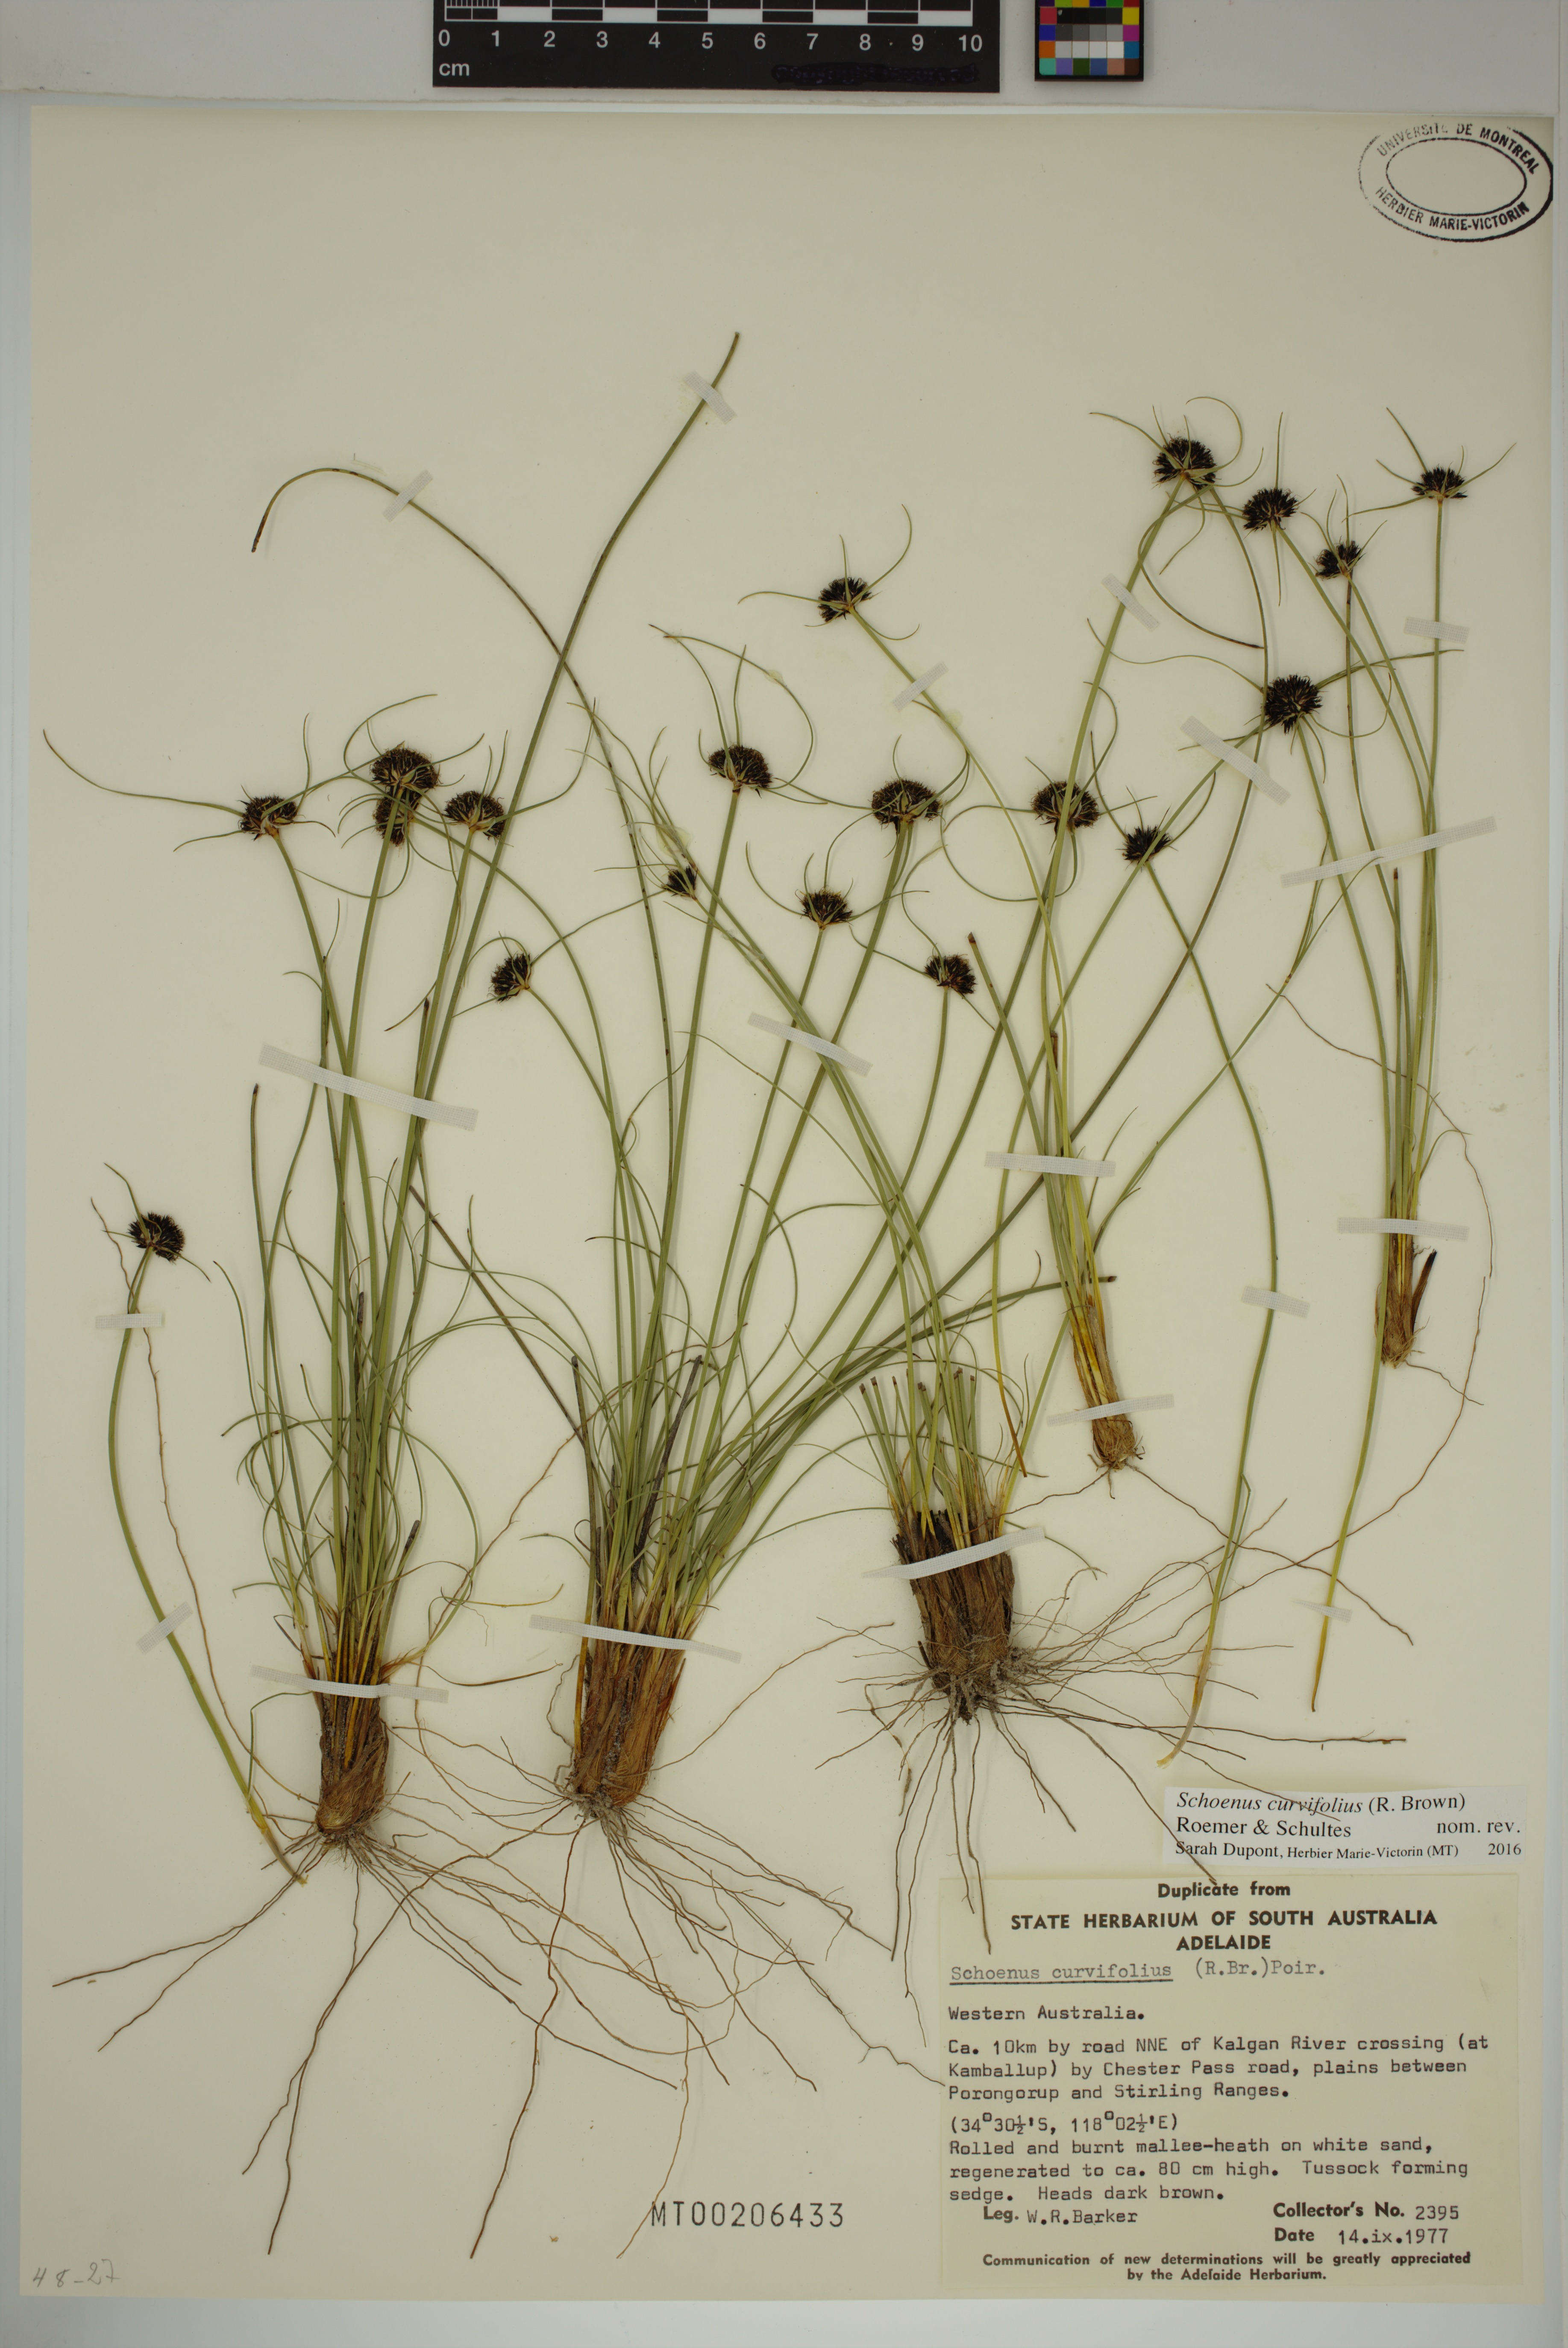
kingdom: Plantae
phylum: Tracheophyta
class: Liliopsida
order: Poales
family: Cyperaceae
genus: Schoenus
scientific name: Schoenus curvifolius
